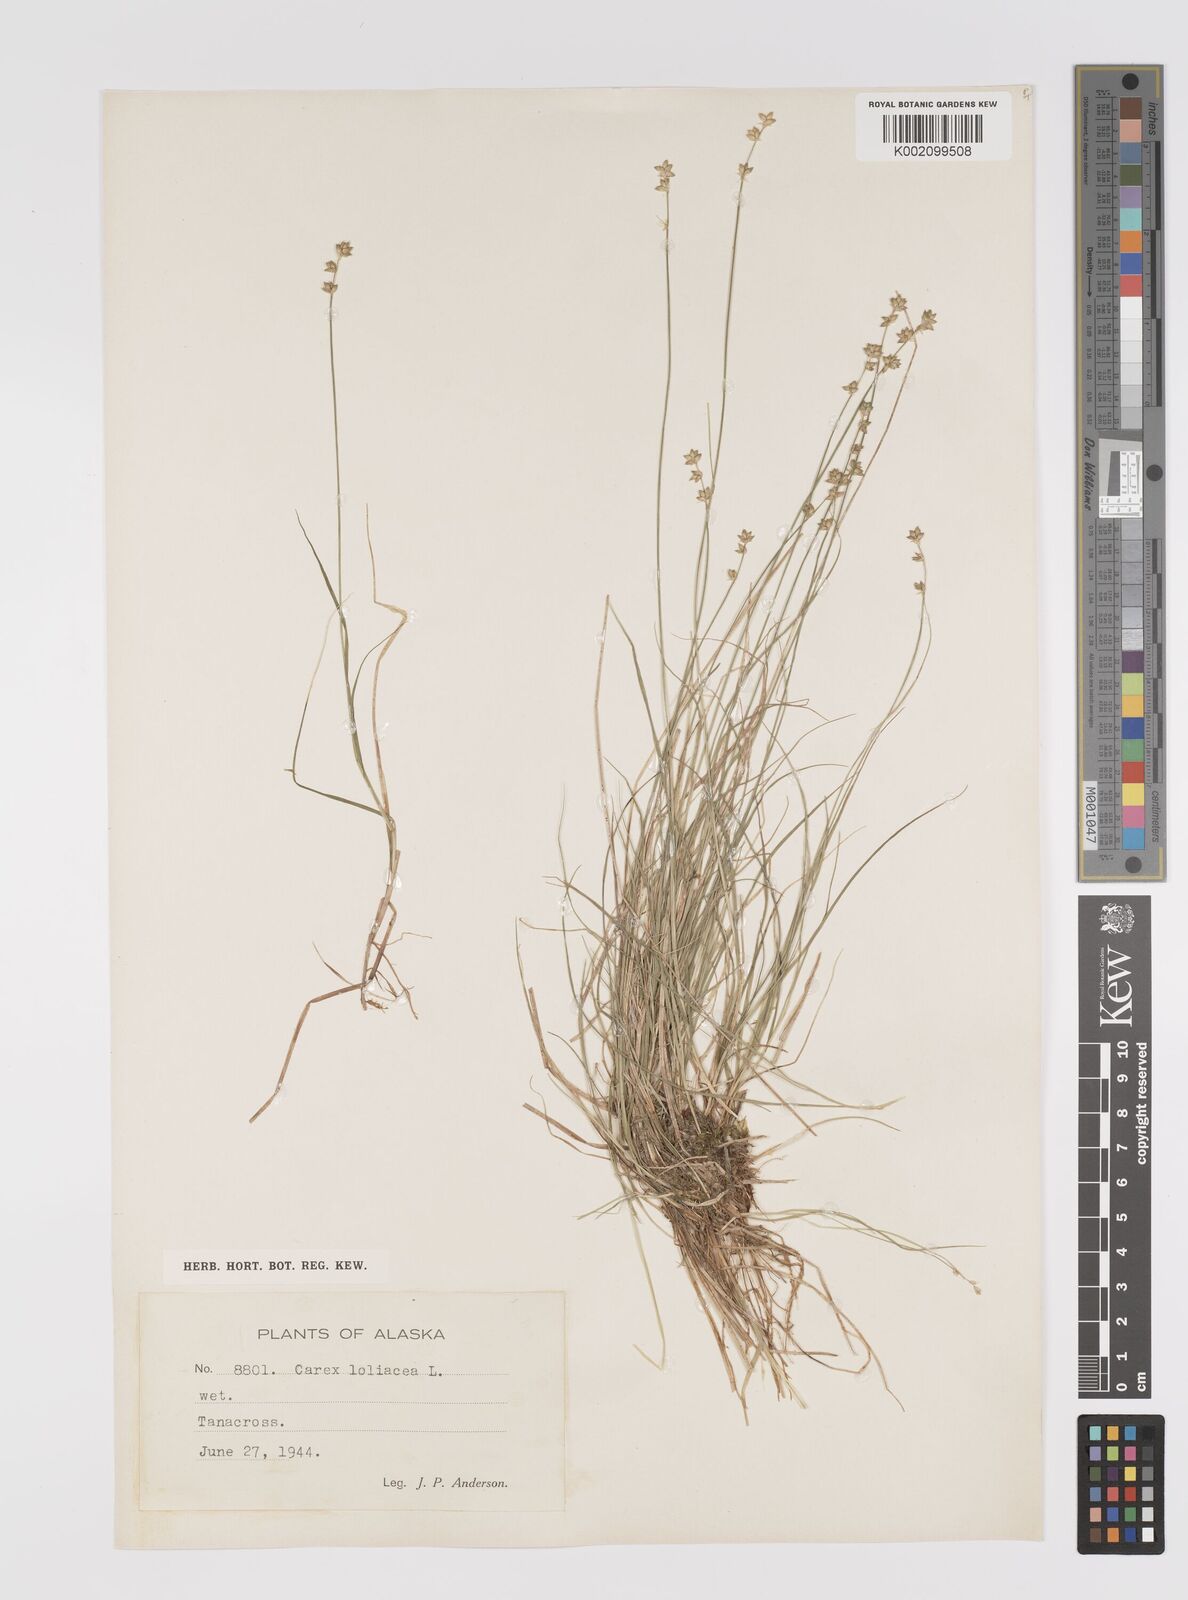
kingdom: Plantae
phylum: Tracheophyta
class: Liliopsida
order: Poales
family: Cyperaceae
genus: Carex
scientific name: Carex loliacea
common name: Ryegrass sedge
